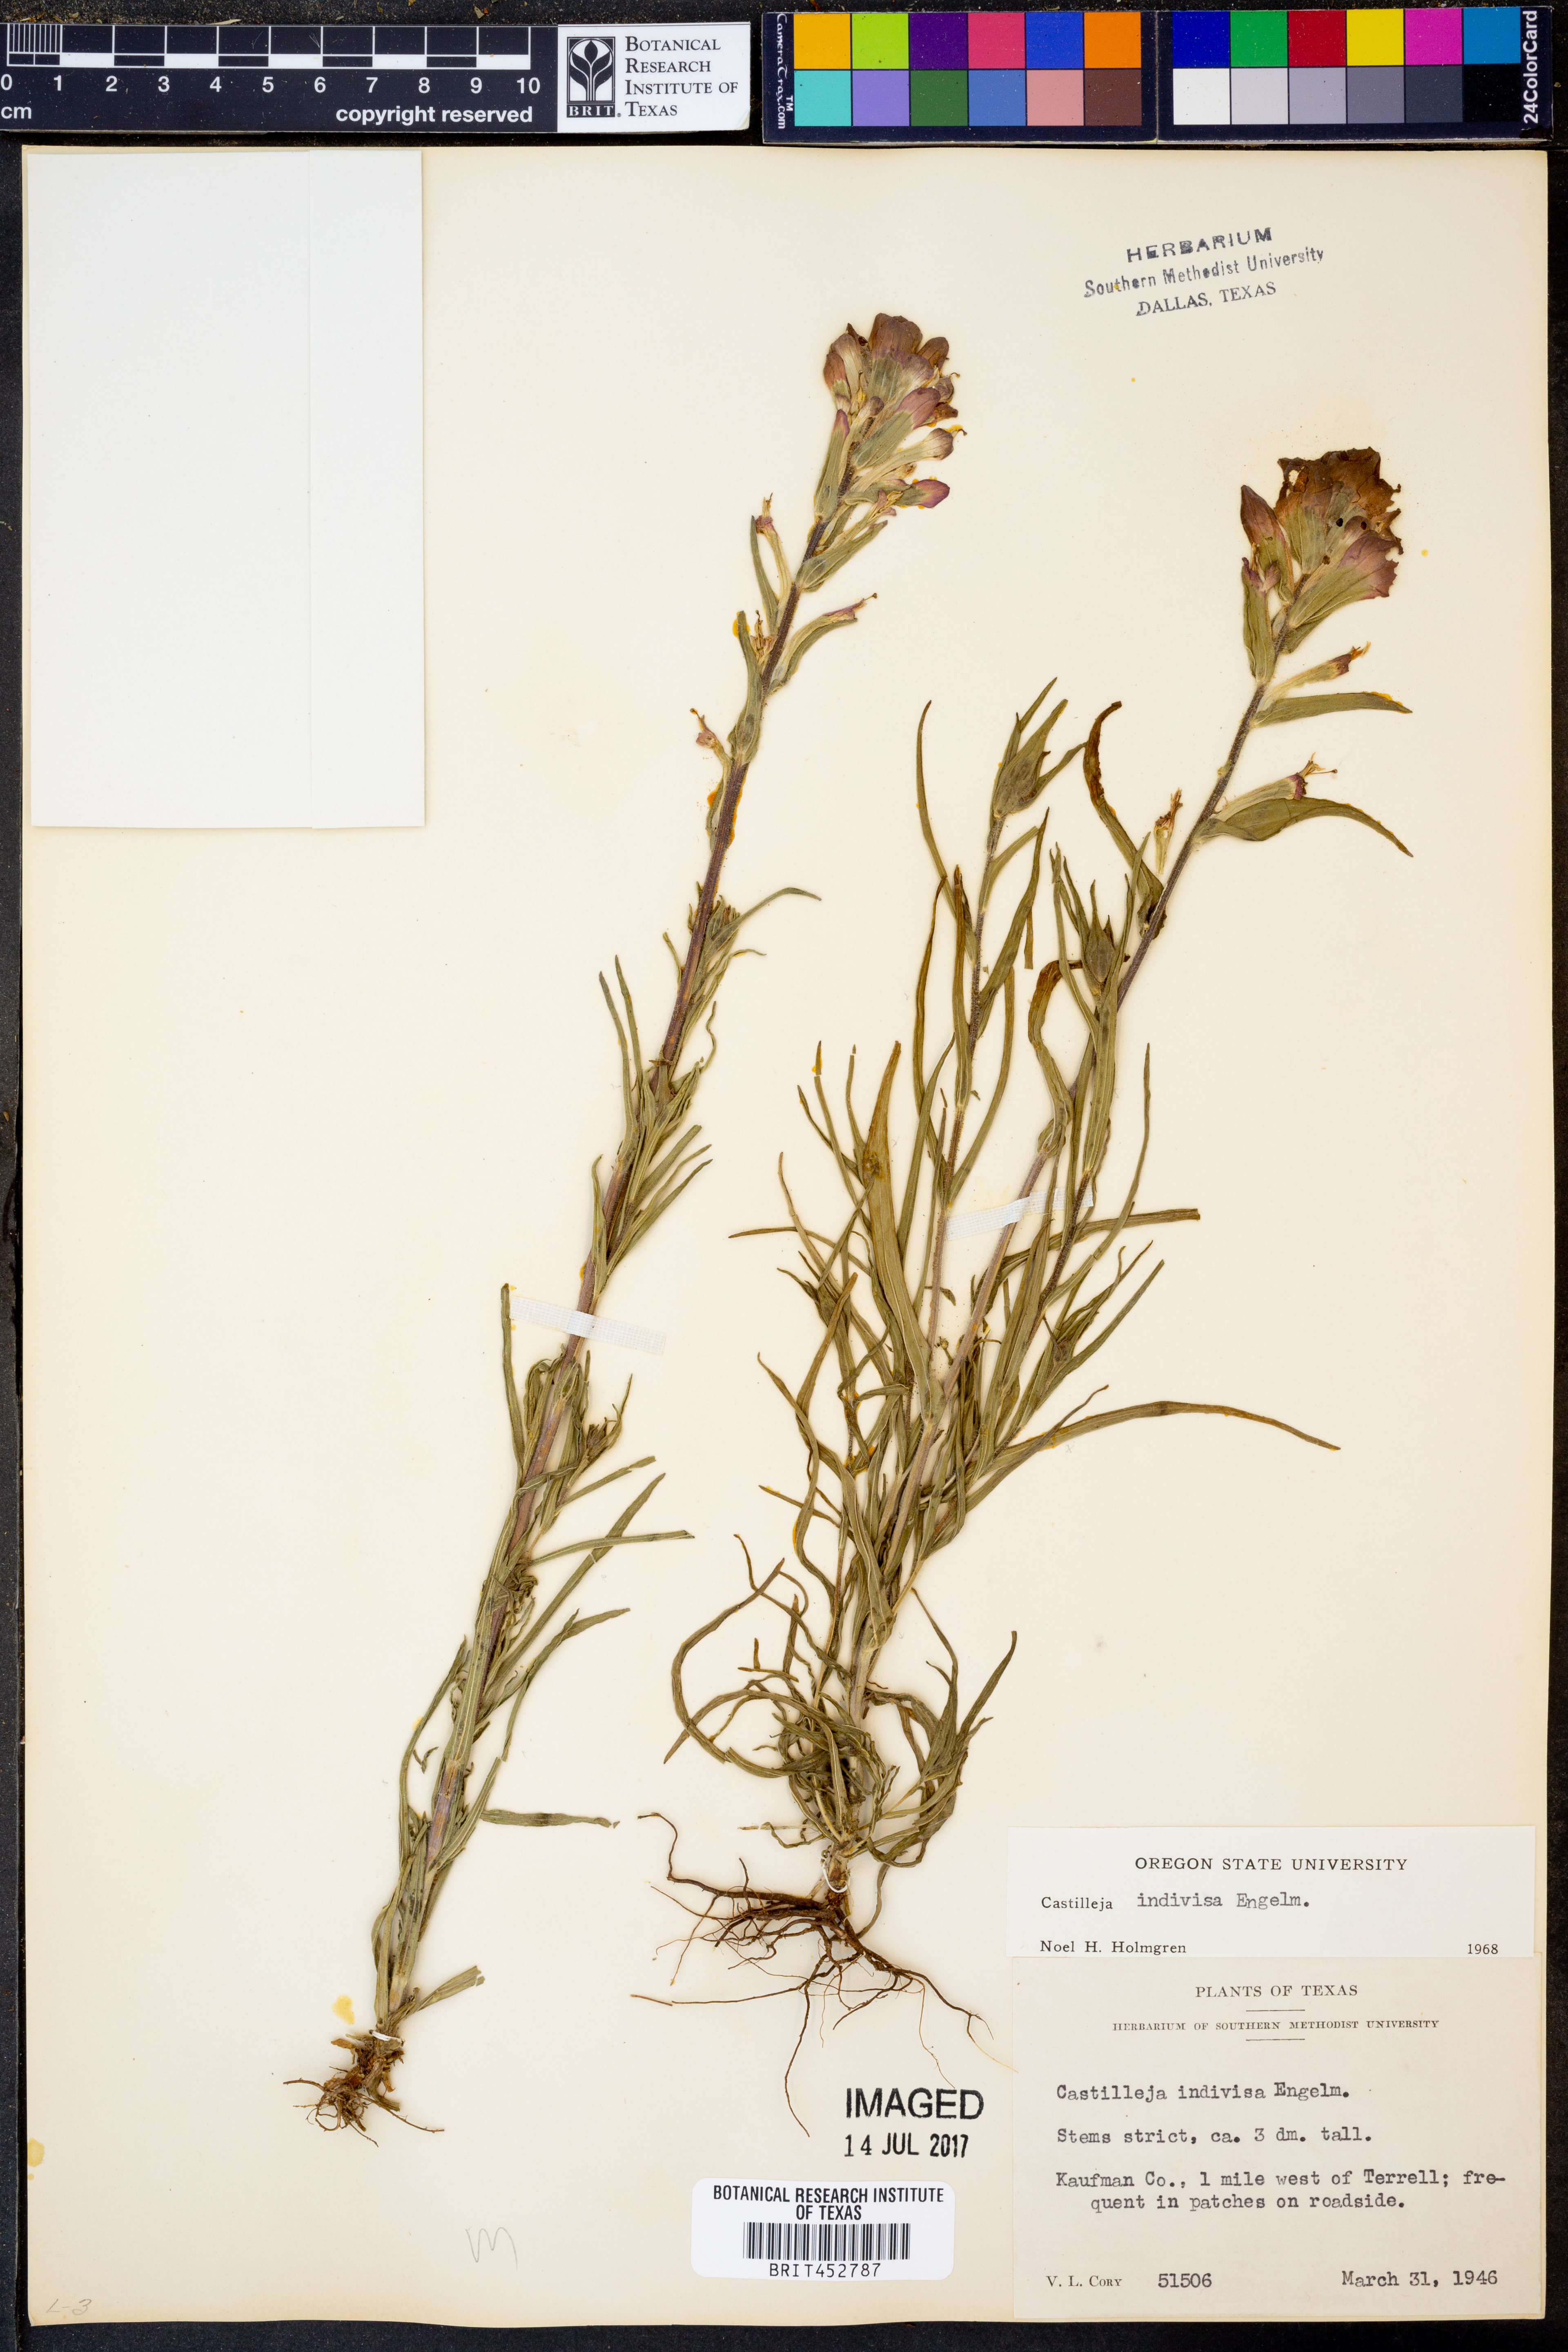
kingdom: Plantae
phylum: Tracheophyta
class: Magnoliopsida
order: Lamiales
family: Orobanchaceae
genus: Castilleja
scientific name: Castilleja indivisa
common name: Texas paintbrush
